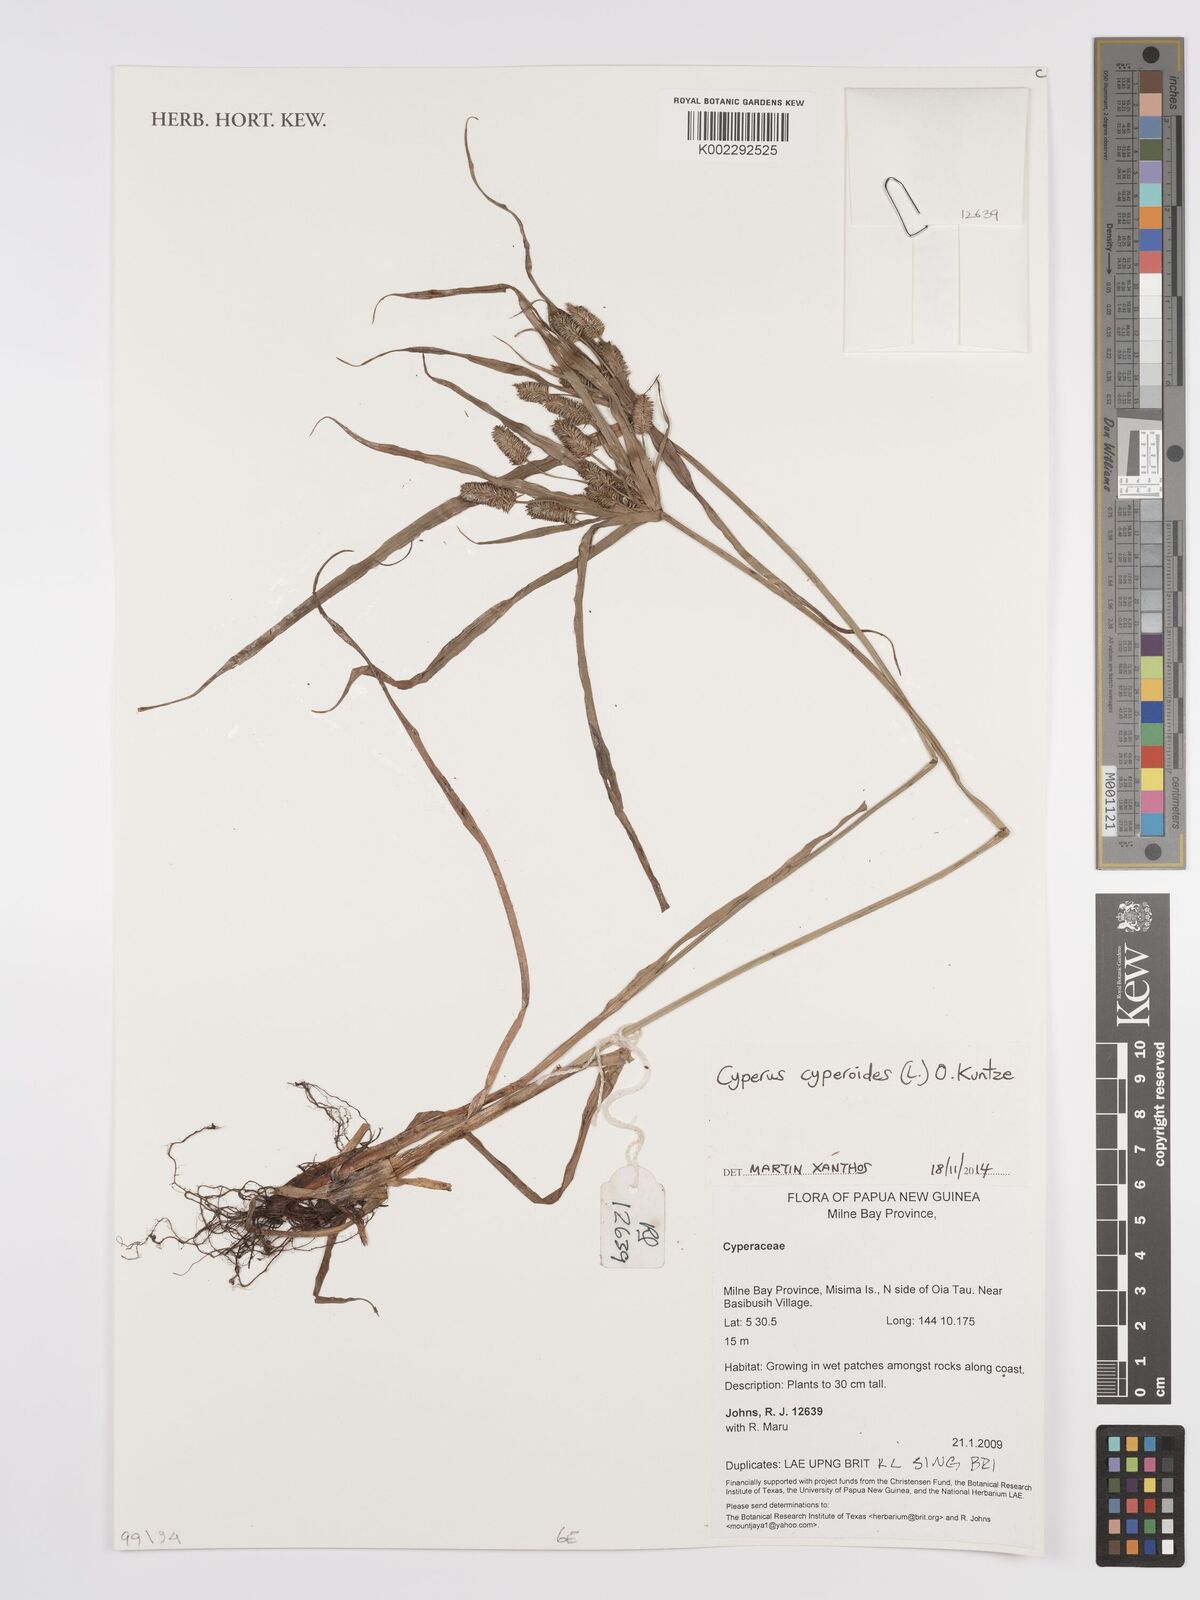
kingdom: Plantae
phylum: Tracheophyta
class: Liliopsida
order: Poales
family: Cyperaceae
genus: Cyperus
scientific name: Cyperus cyperoides
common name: Pacific island flat sedge
